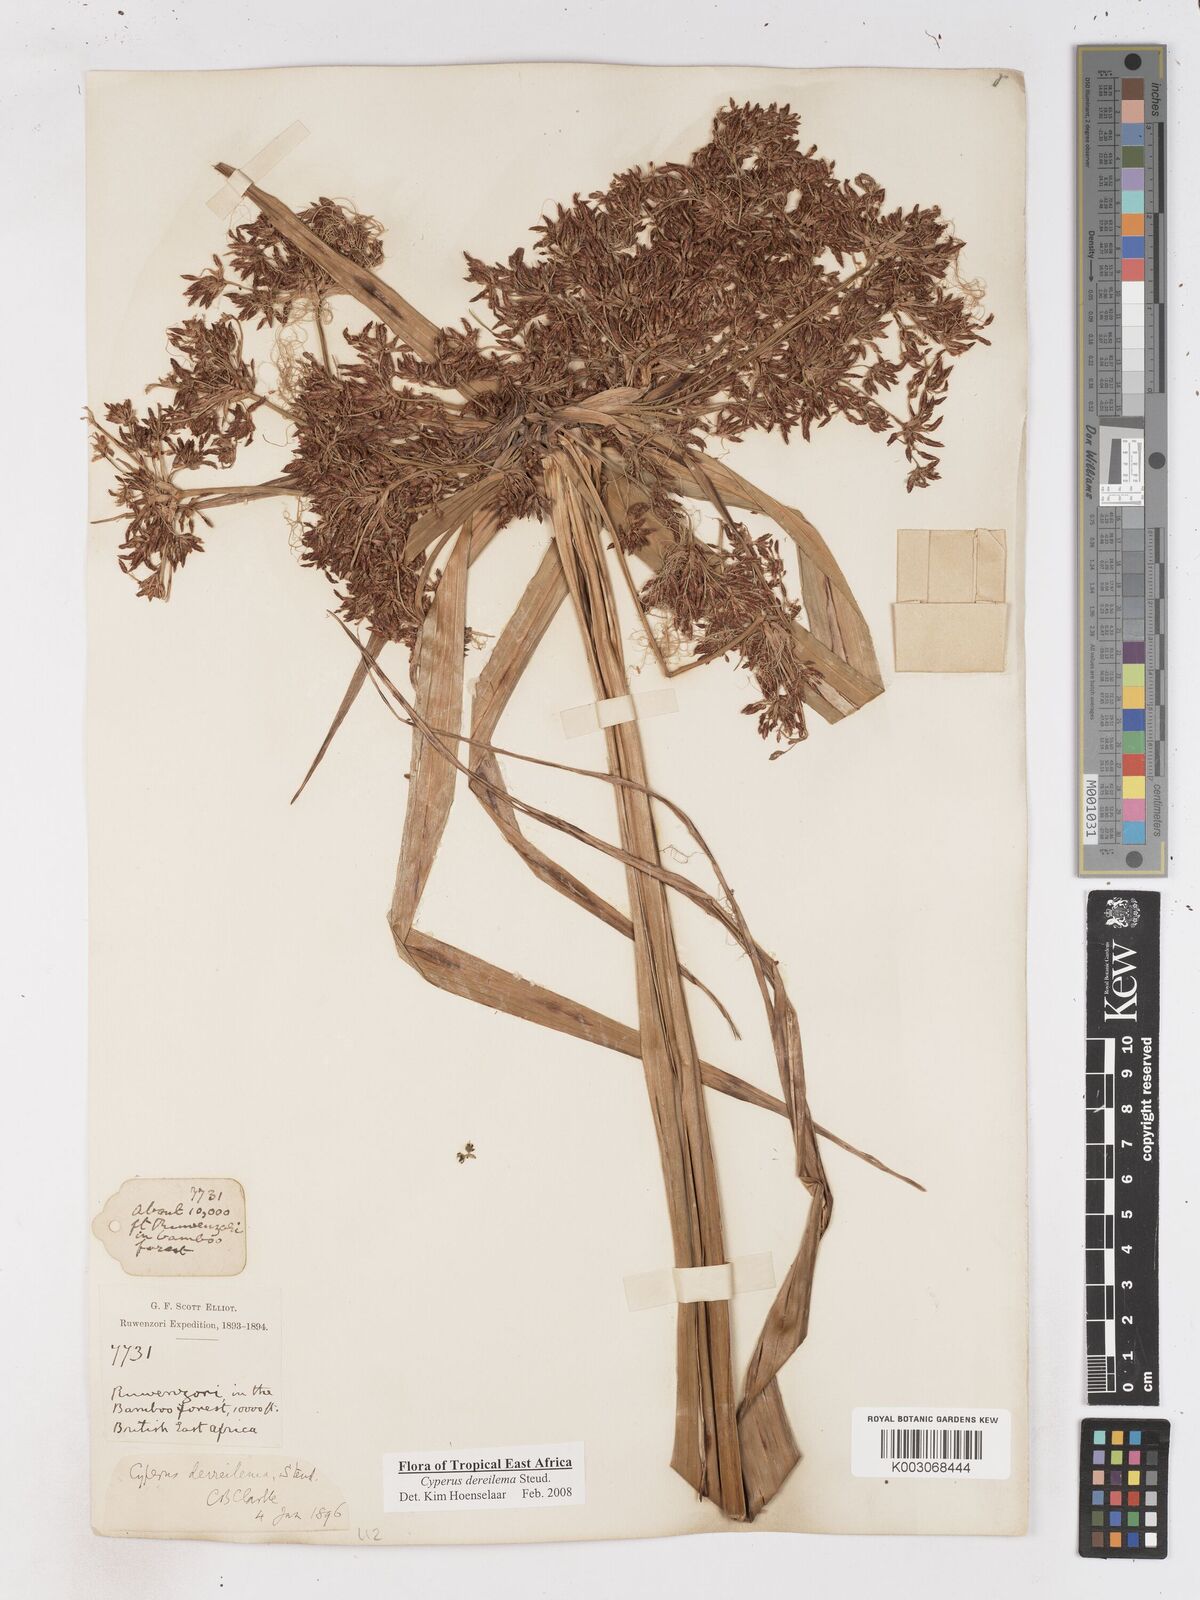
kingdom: Plantae
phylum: Tracheophyta
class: Liliopsida
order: Poales
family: Cyperaceae
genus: Cyperus
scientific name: Cyperus derreilema
